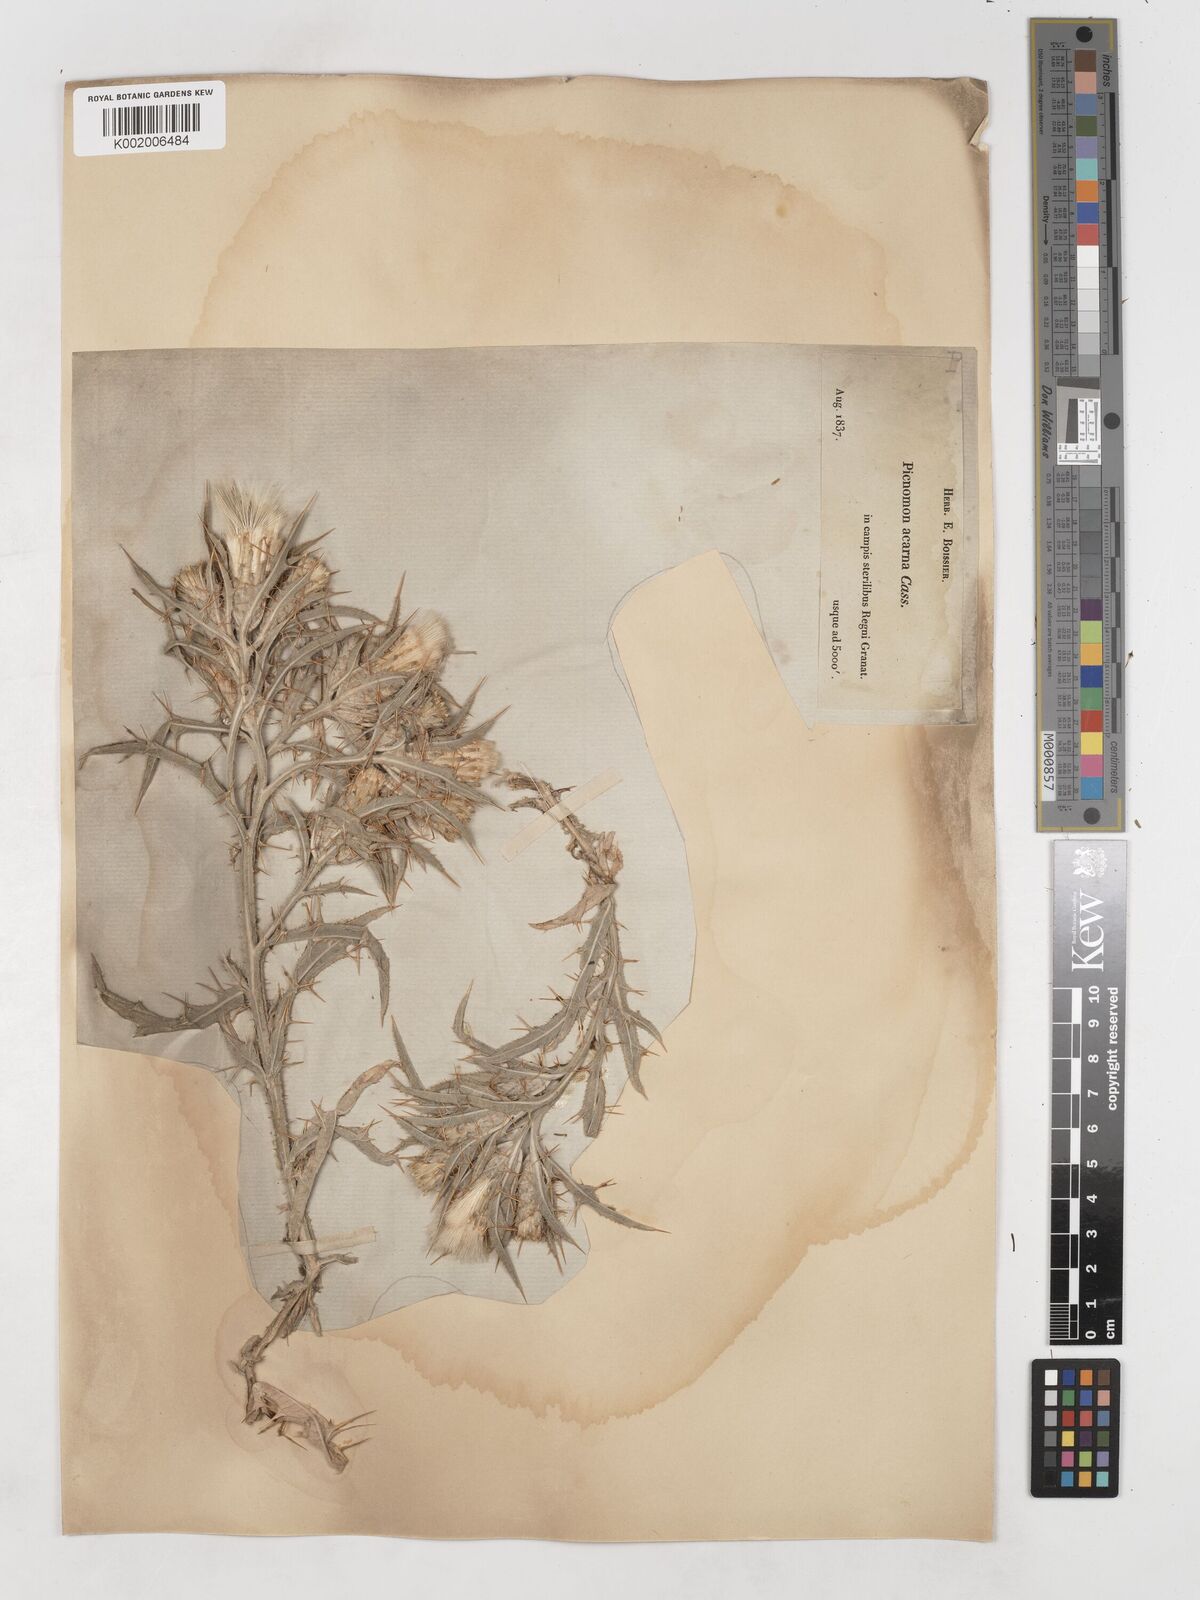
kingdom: Plantae
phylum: Tracheophyta
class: Magnoliopsida
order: Asterales
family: Asteraceae
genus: Picnomon
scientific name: Picnomon acarna
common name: Soldier thistle
